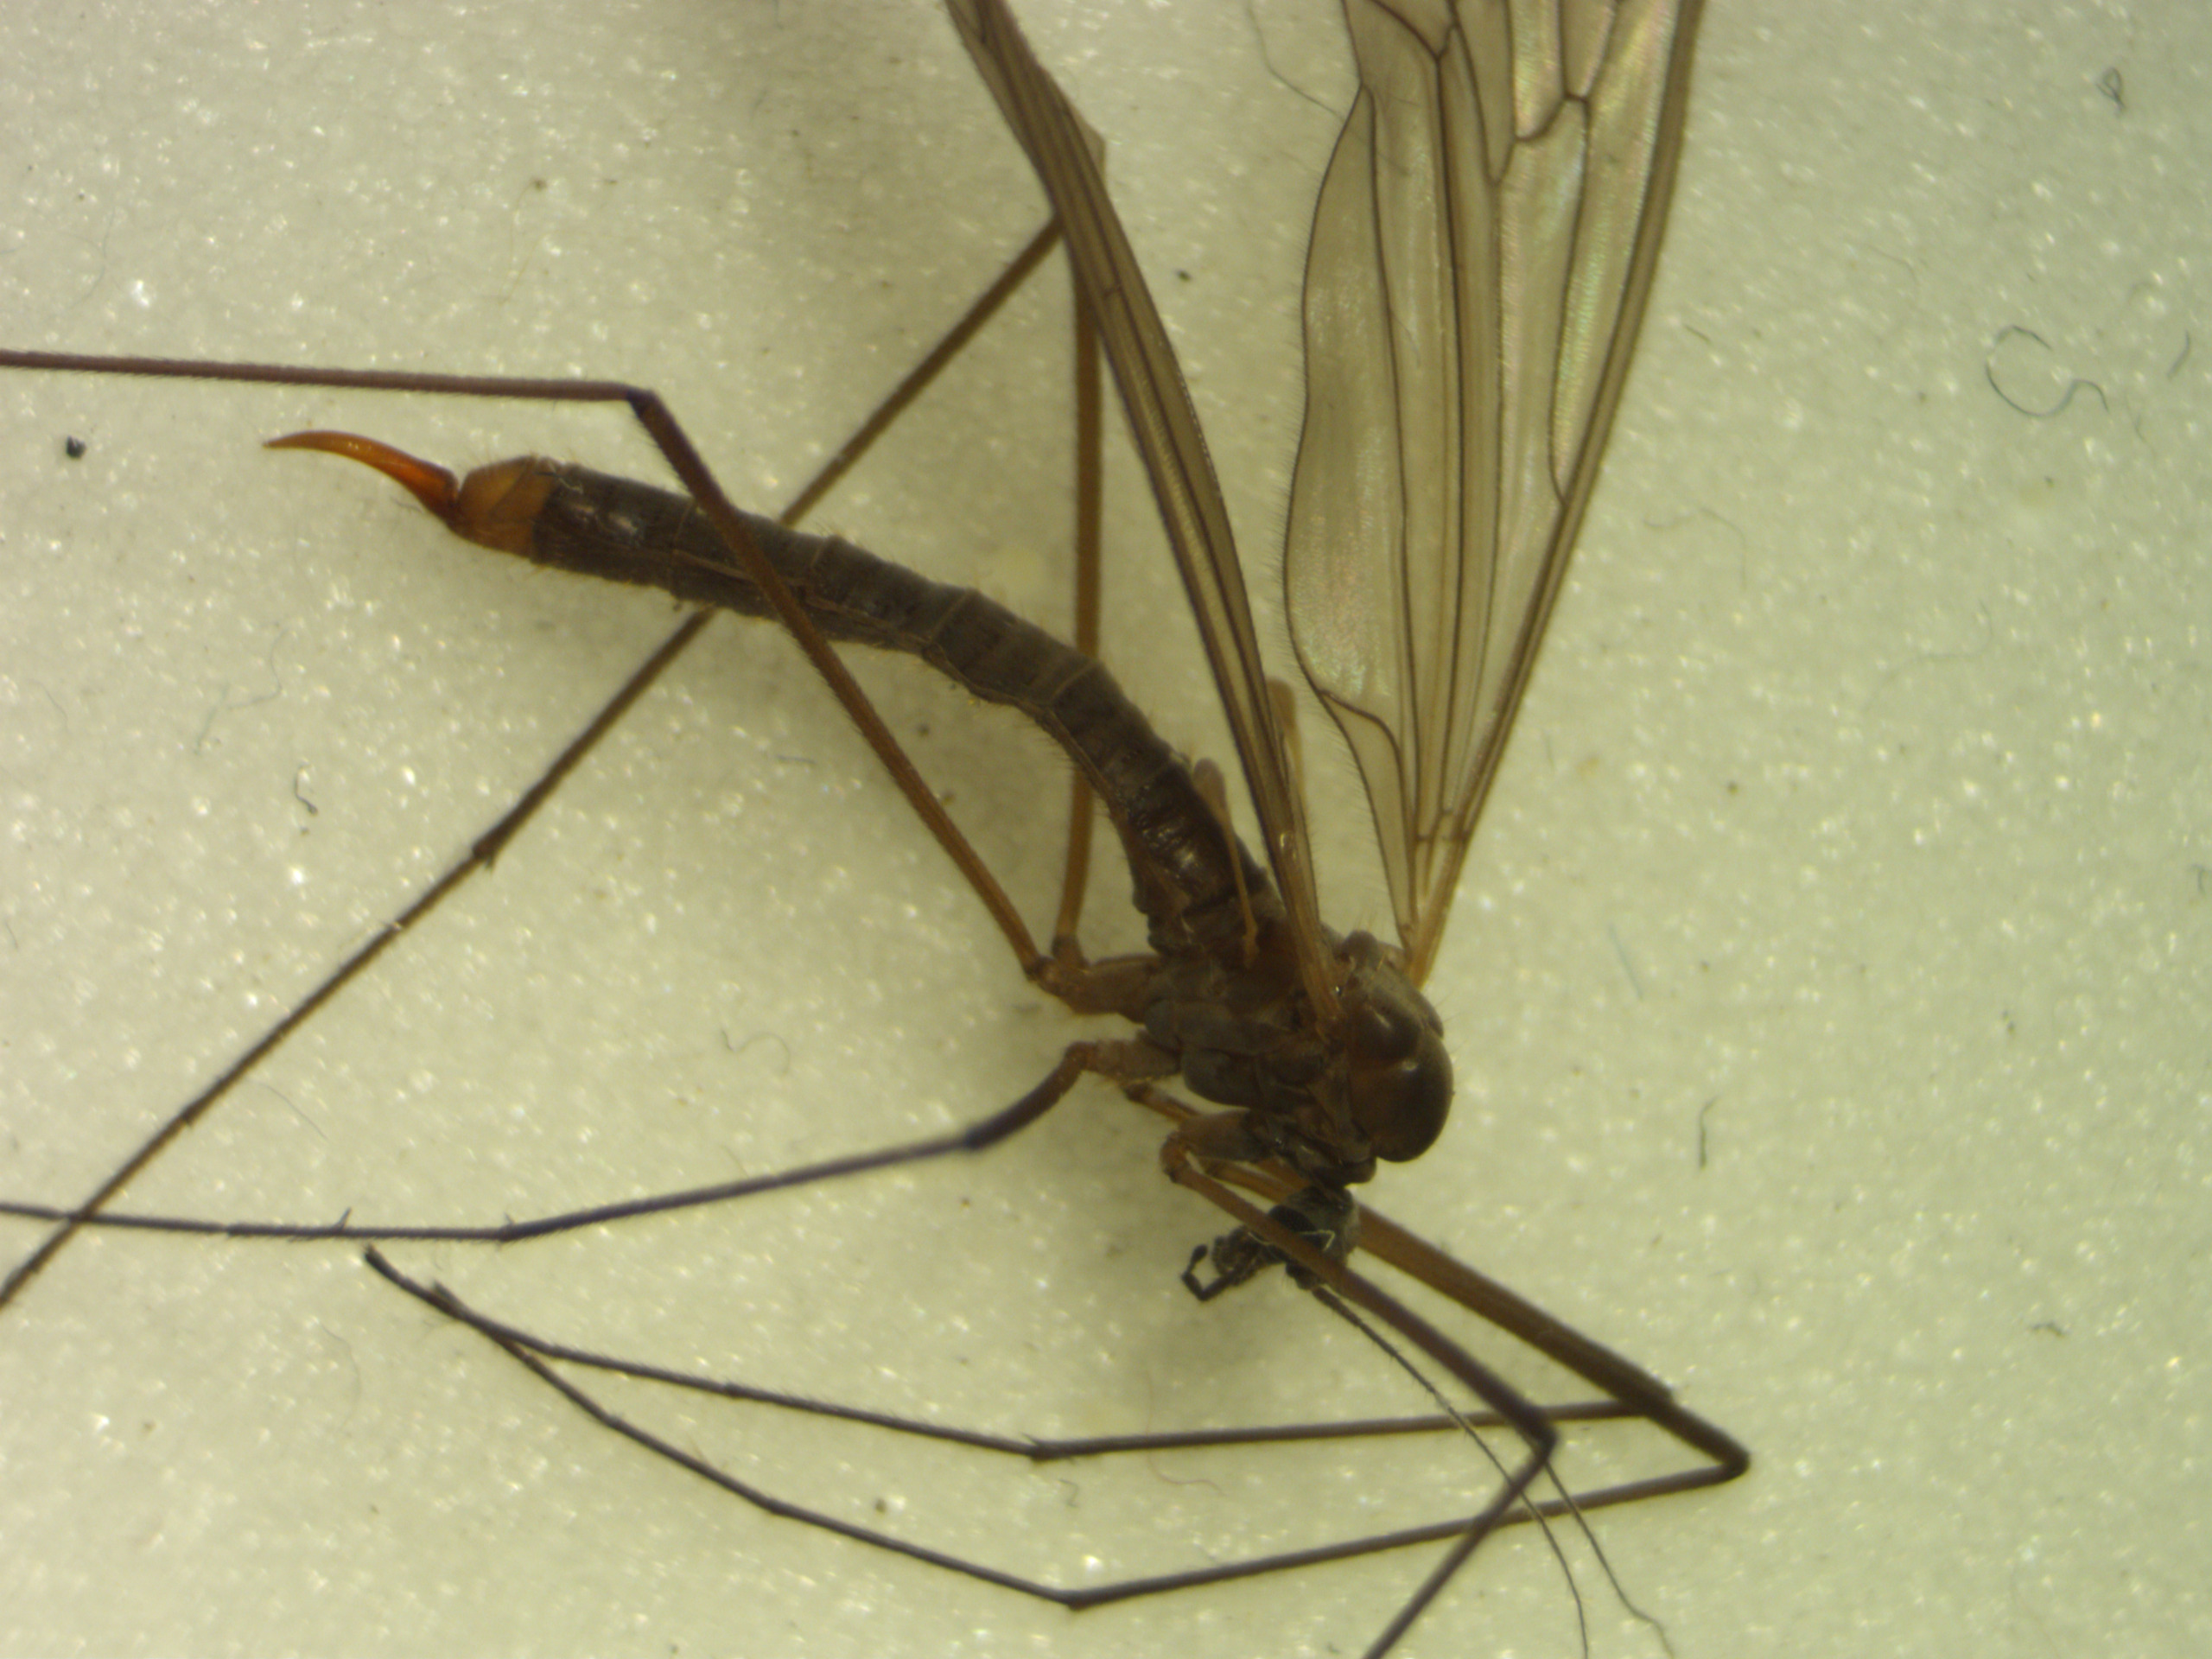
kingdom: Animalia
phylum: Arthropoda
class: Insecta
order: Diptera
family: Trichoceridae
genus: Trichocera
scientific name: Trichocera major
